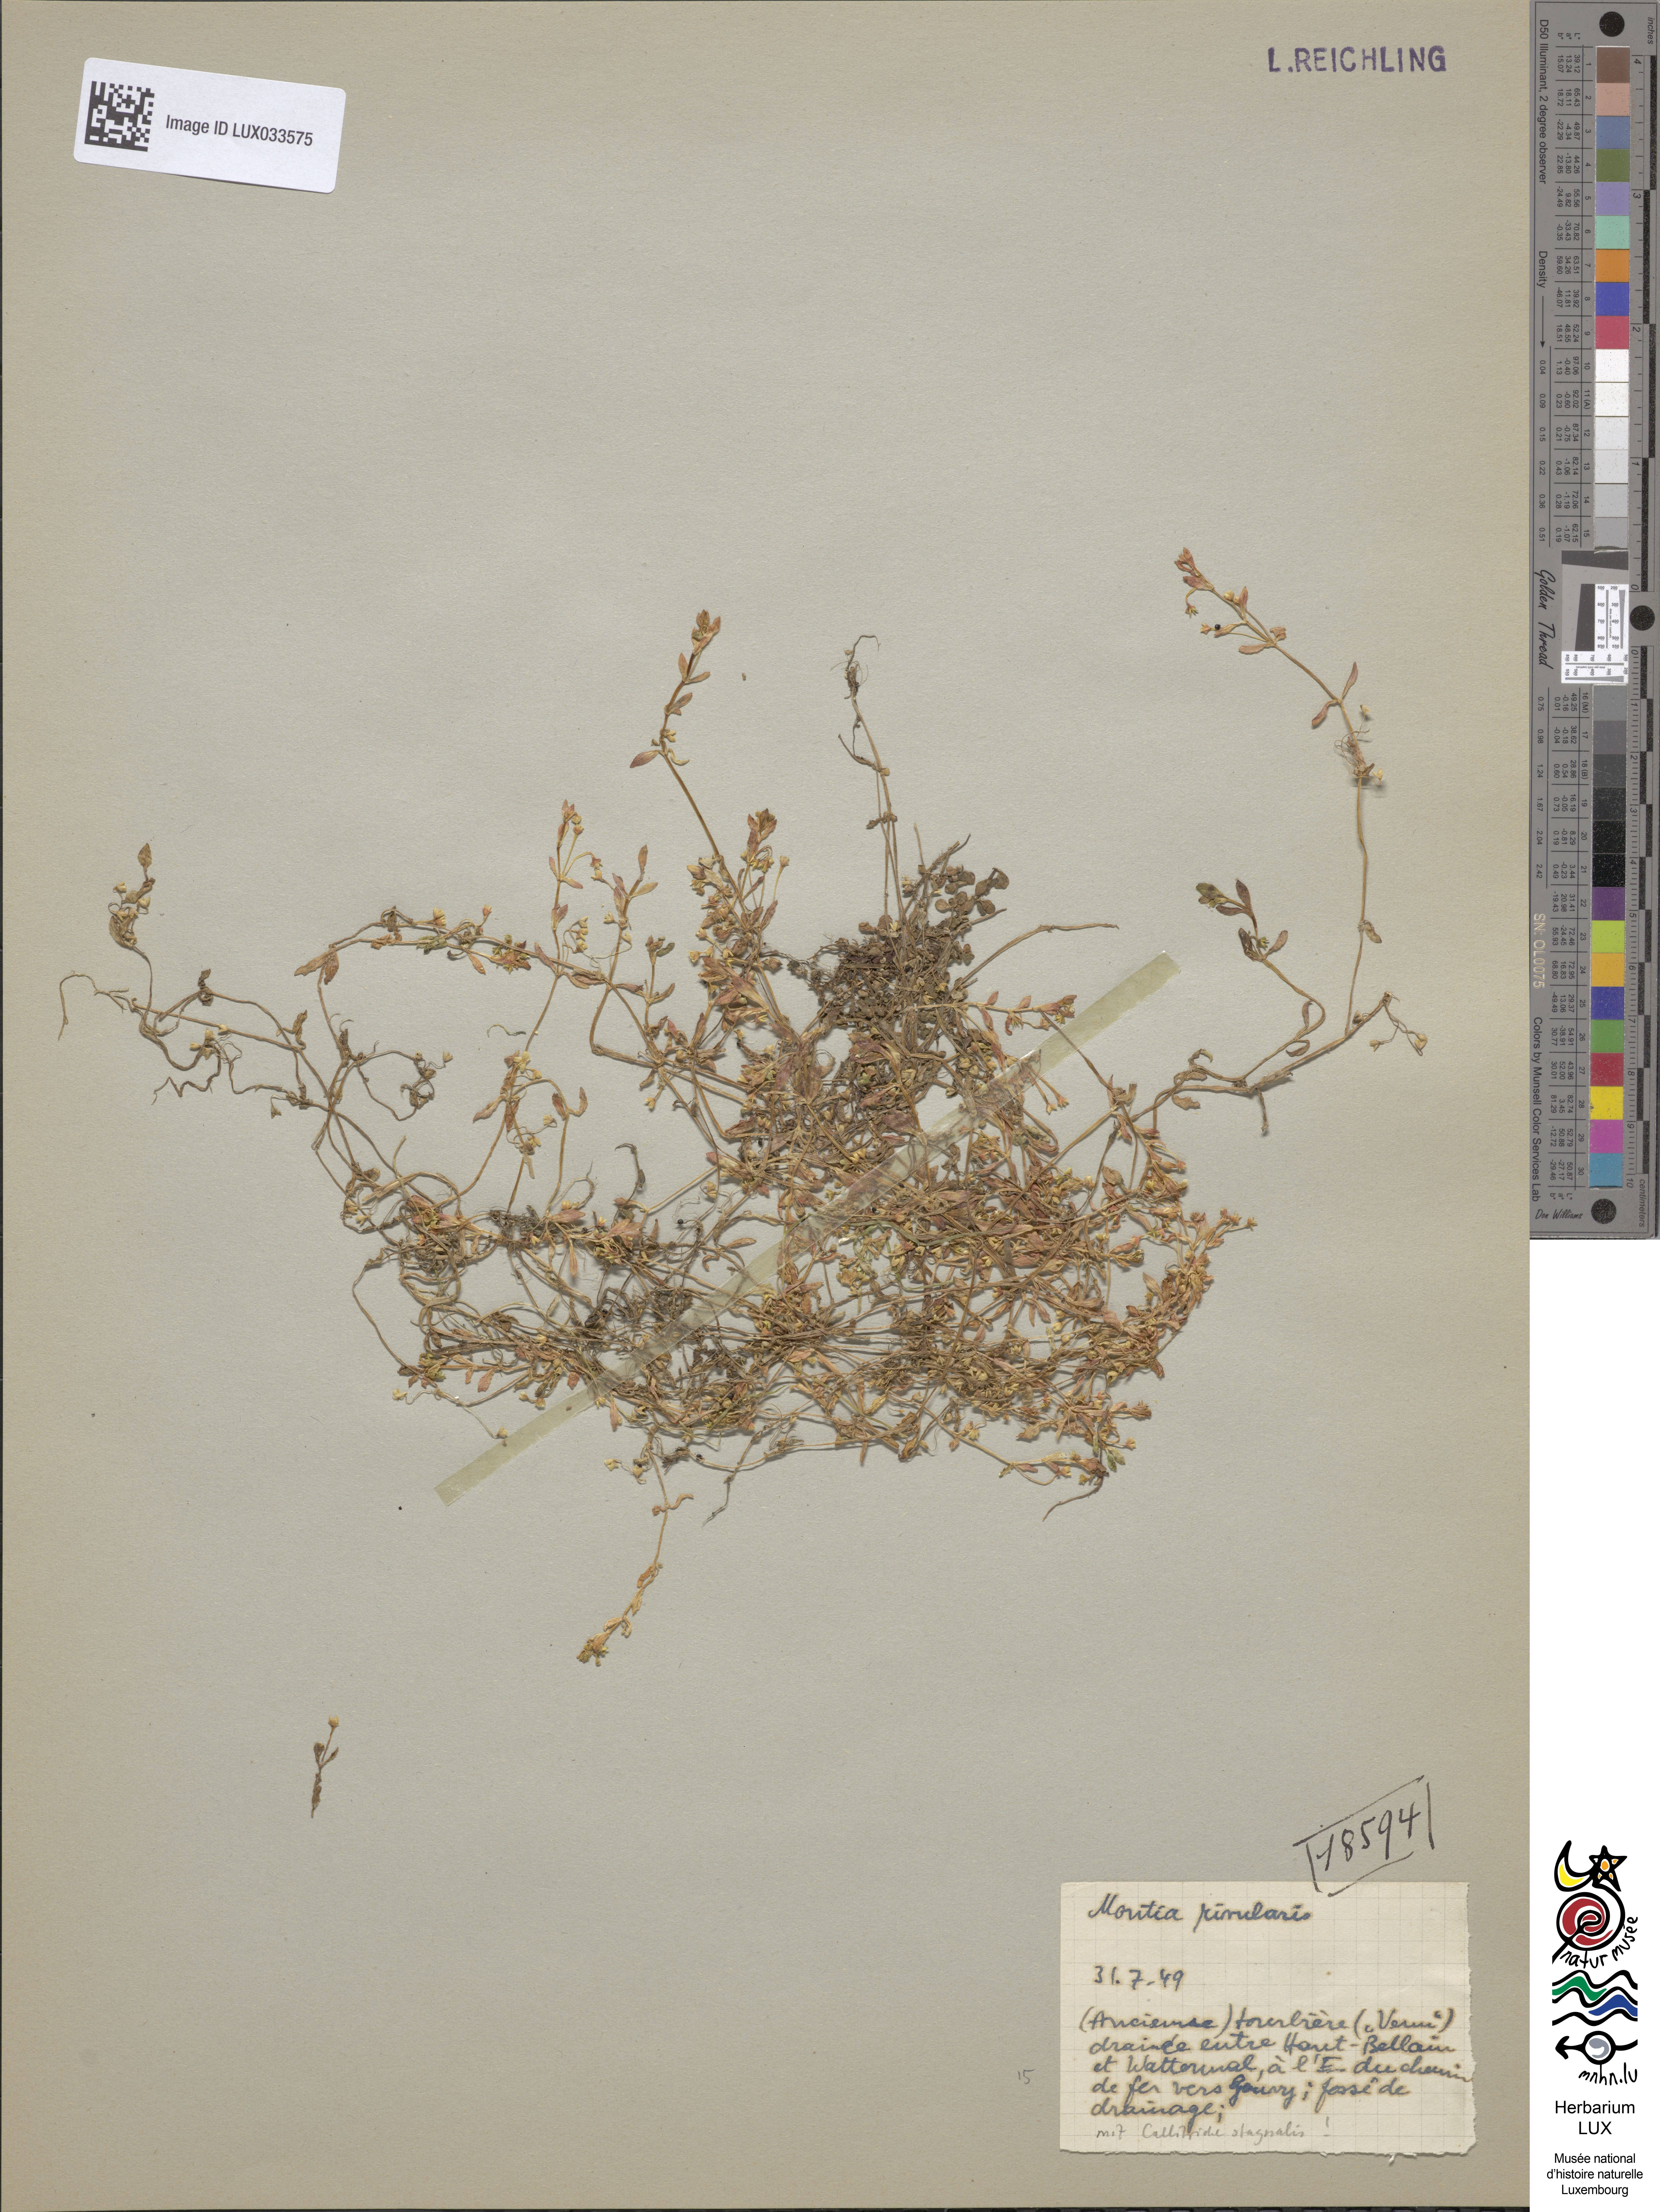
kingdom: Plantae
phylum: Tracheophyta
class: Magnoliopsida
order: Caryophyllales
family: Montiaceae
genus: Montia
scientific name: Montia fontana
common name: Blinks
